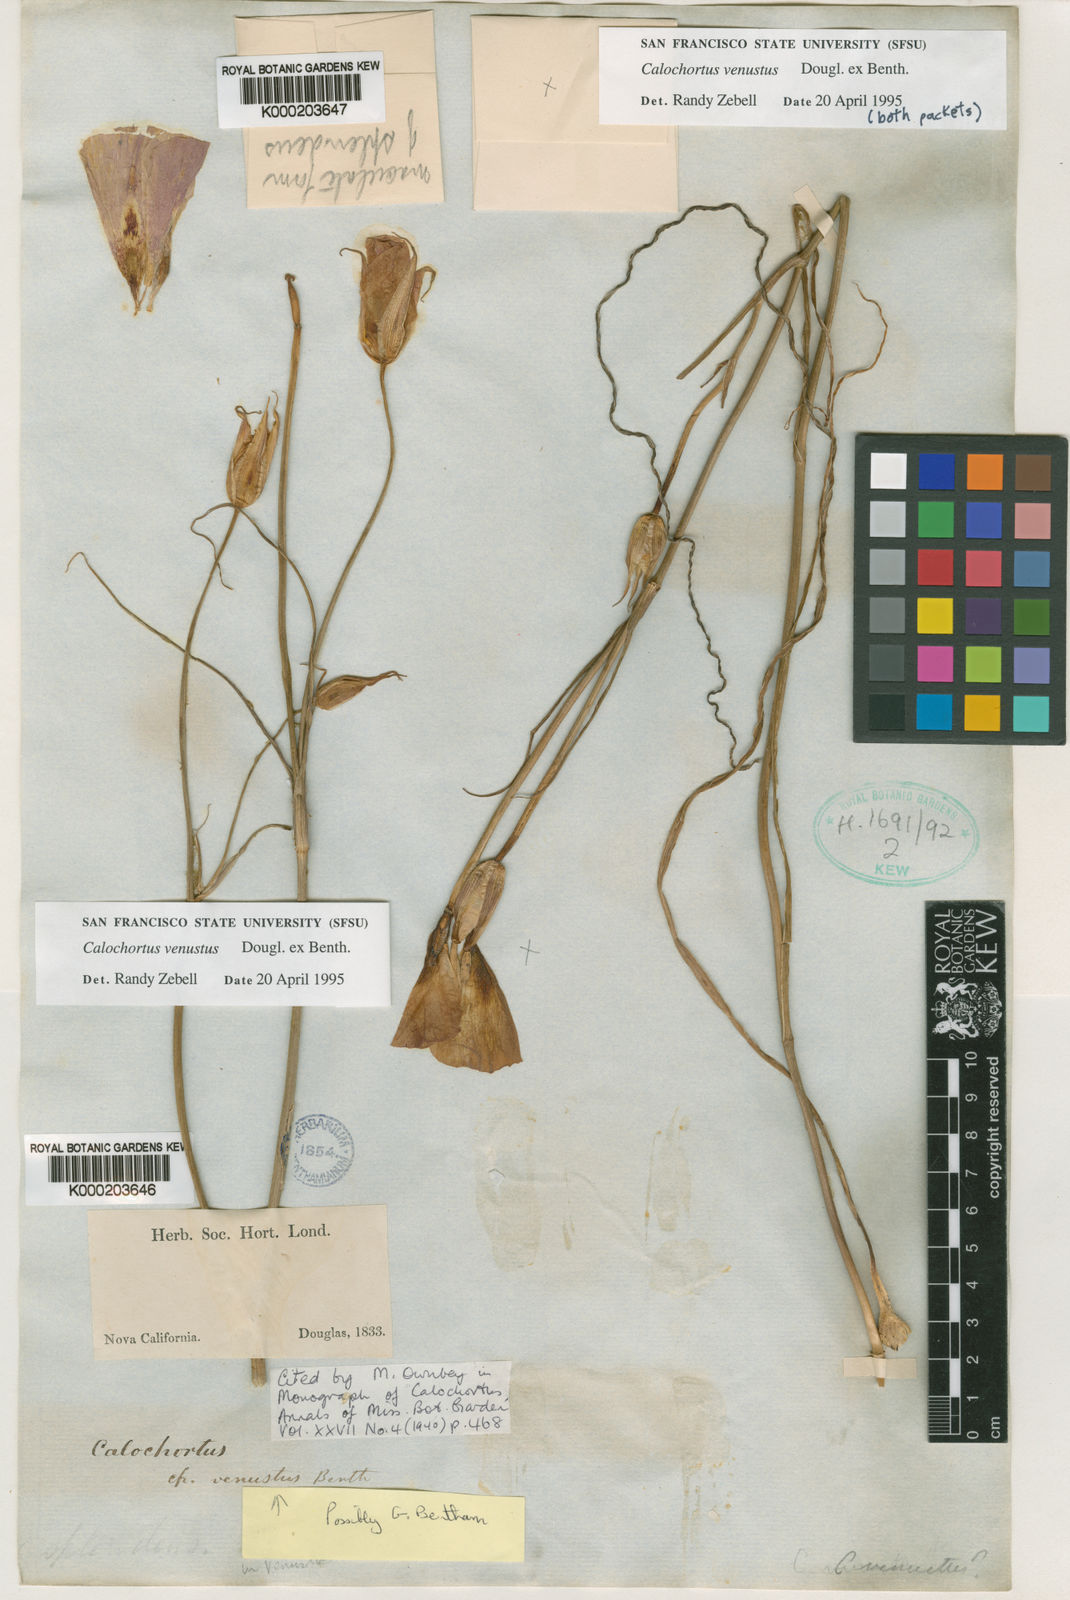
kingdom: Plantae
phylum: Tracheophyta
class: Liliopsida
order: Liliales
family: Liliaceae
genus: Calochortus
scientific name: Calochortus venustus
